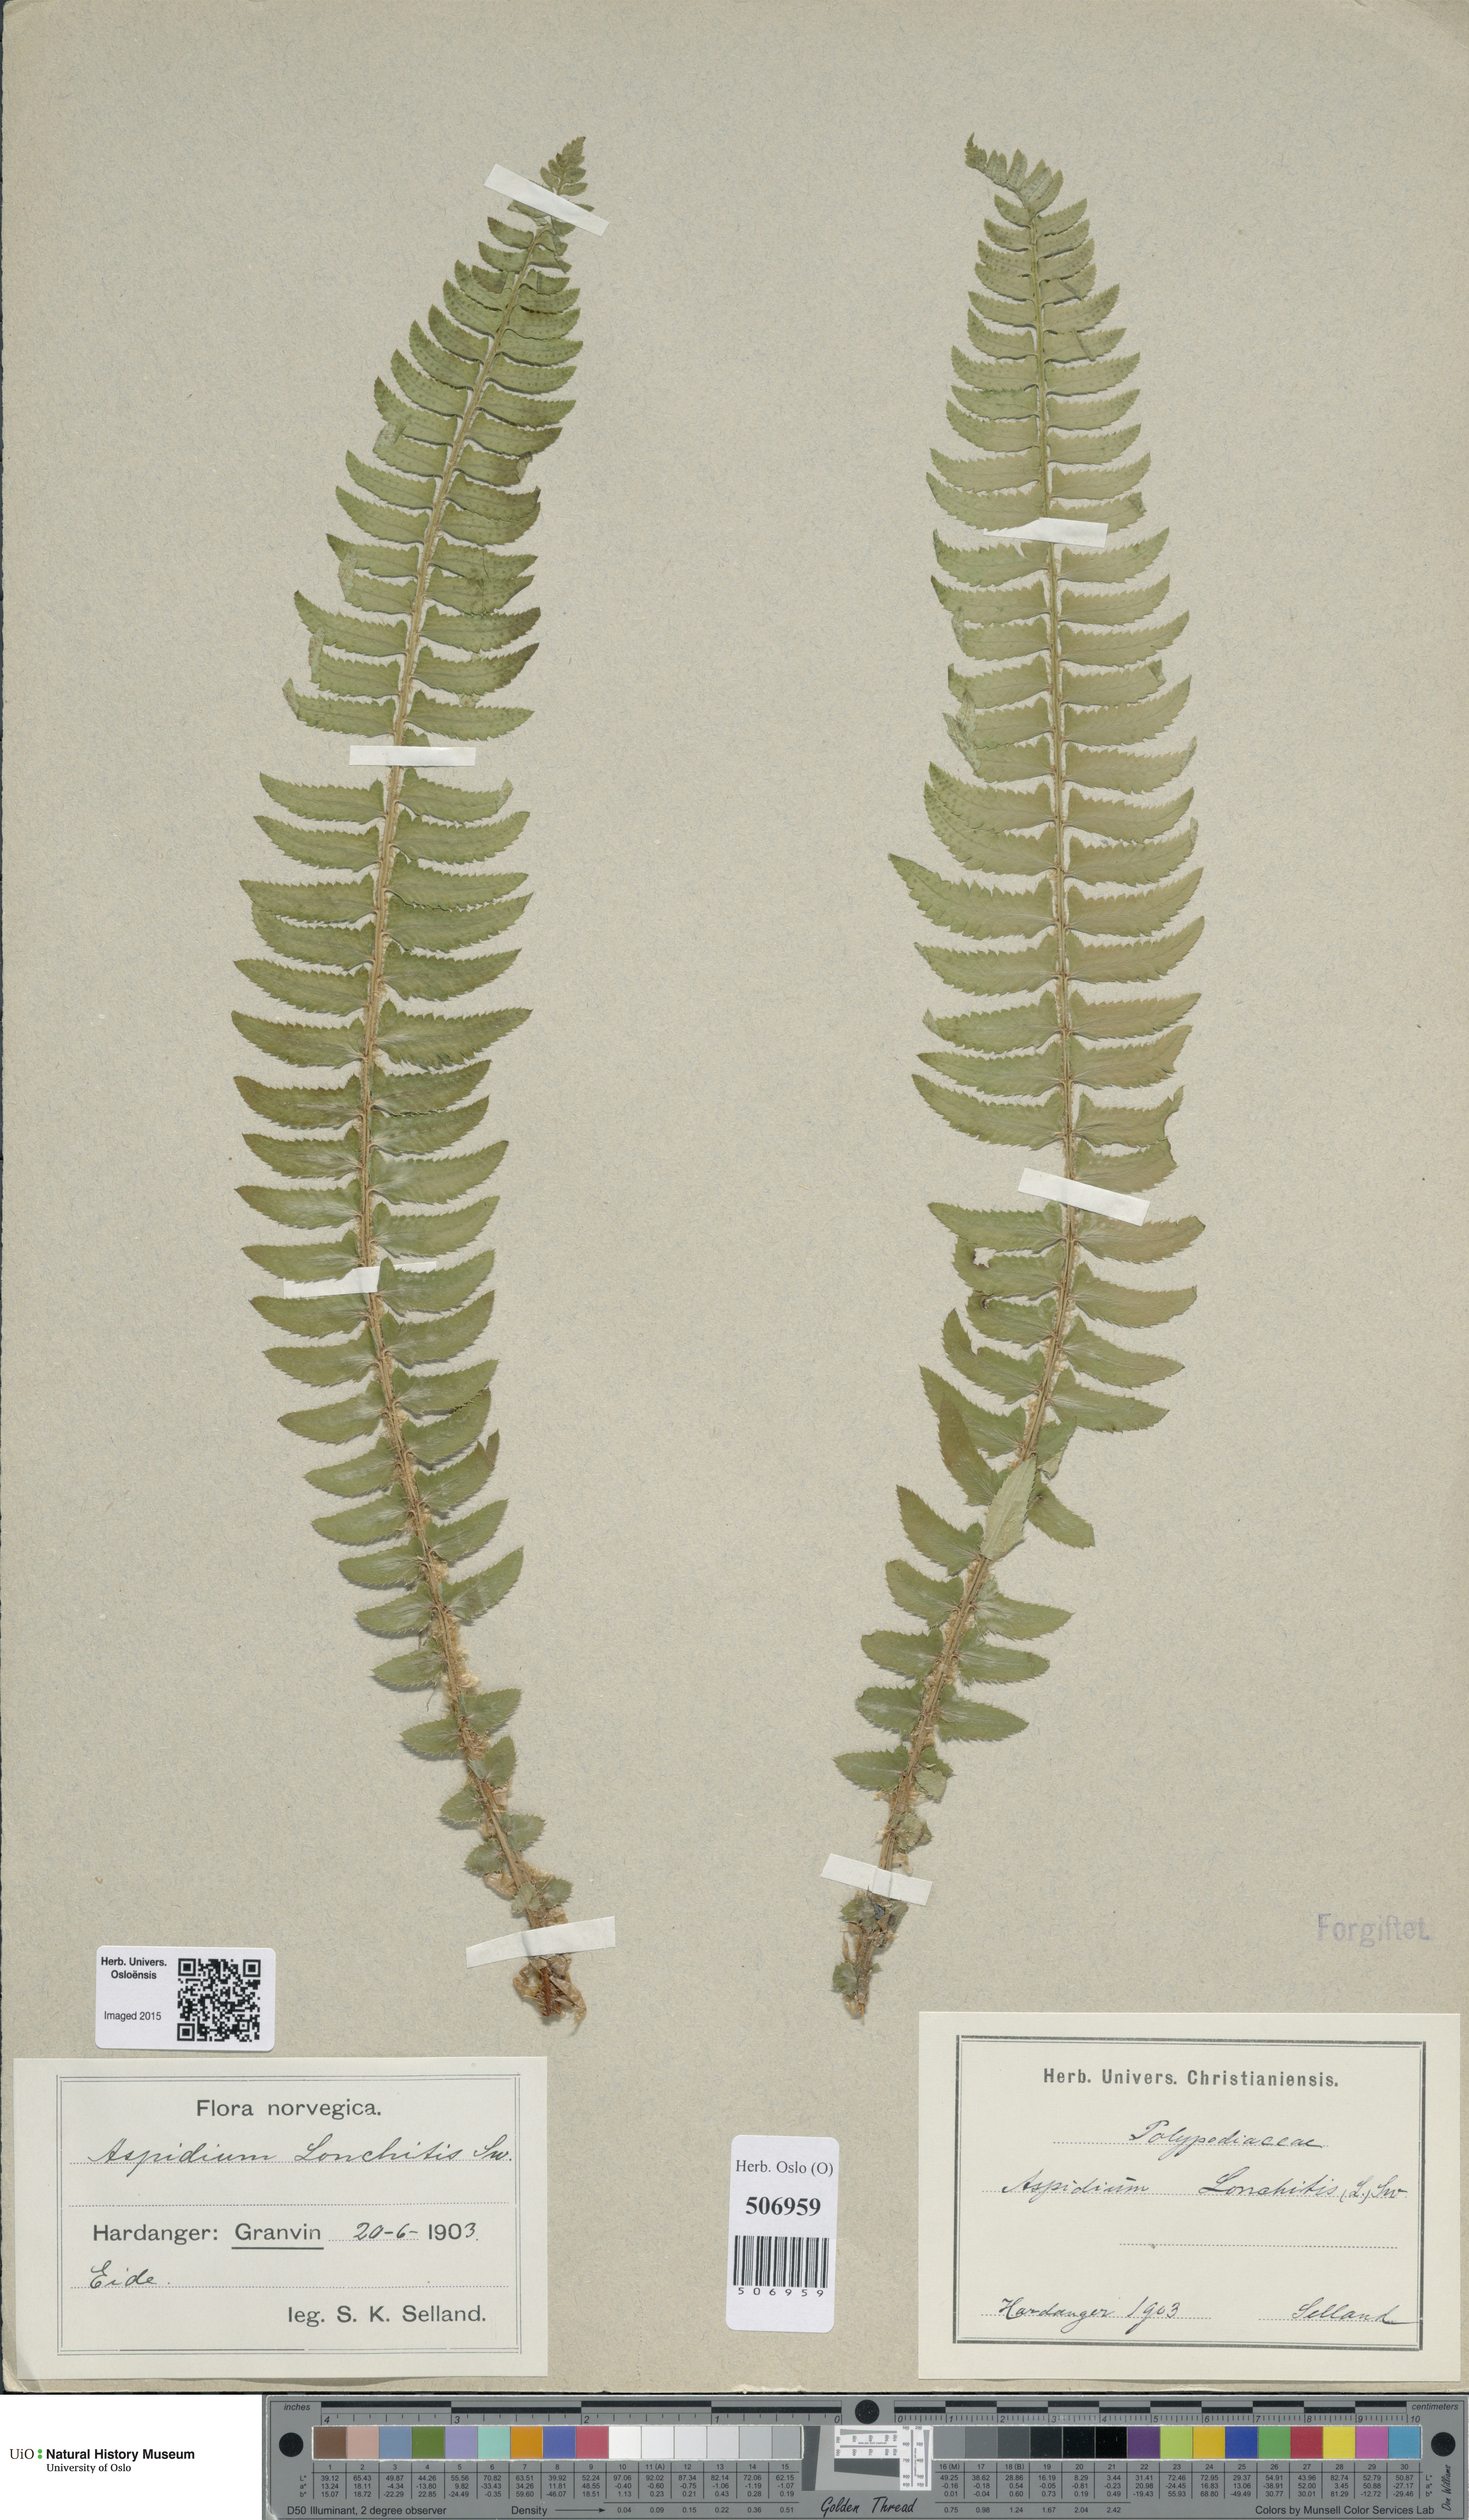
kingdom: Plantae
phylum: Tracheophyta
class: Polypodiopsida
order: Polypodiales
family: Dryopteridaceae
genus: Polystichum
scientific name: Polystichum lonchitis
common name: Holly fern
